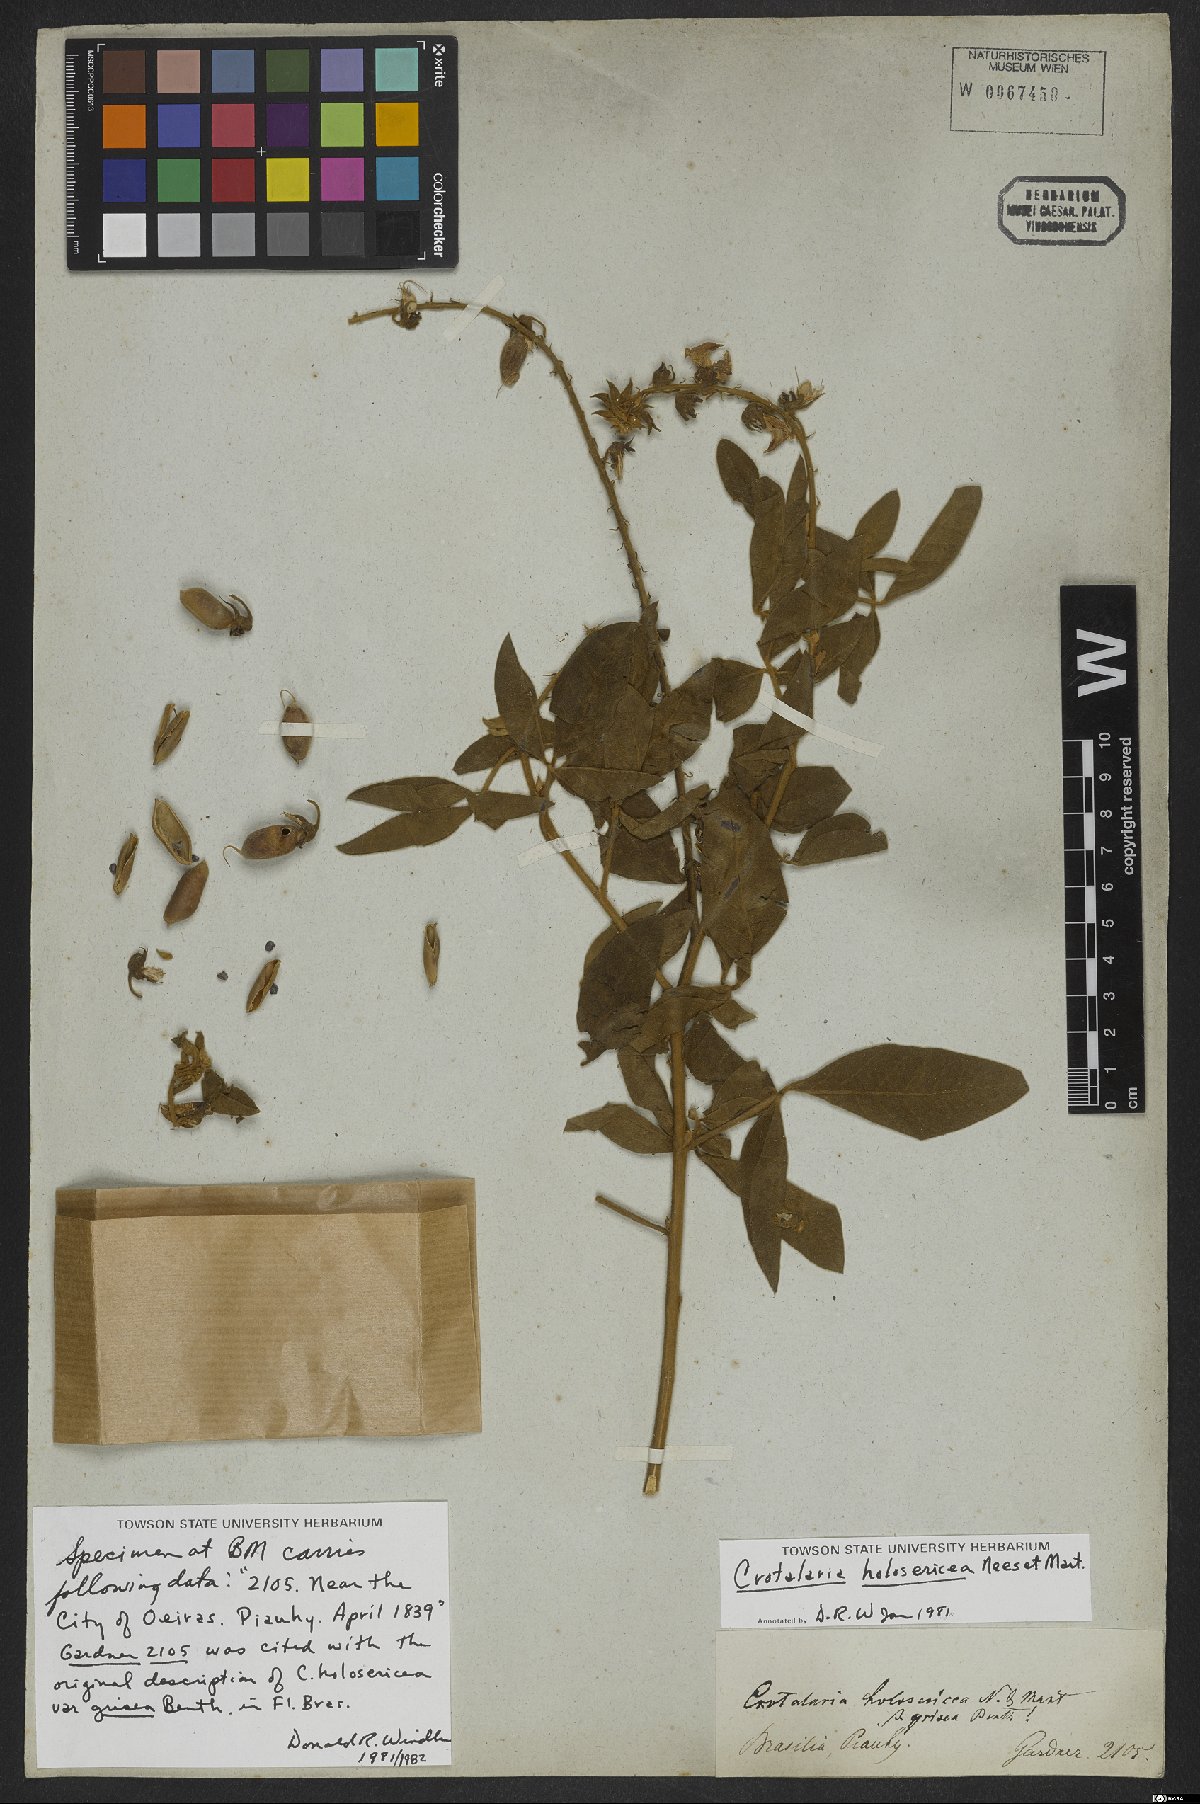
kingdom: Plantae
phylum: Tracheophyta
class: Magnoliopsida
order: Fabales
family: Fabaceae
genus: Crotalaria
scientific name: Crotalaria holosericea
